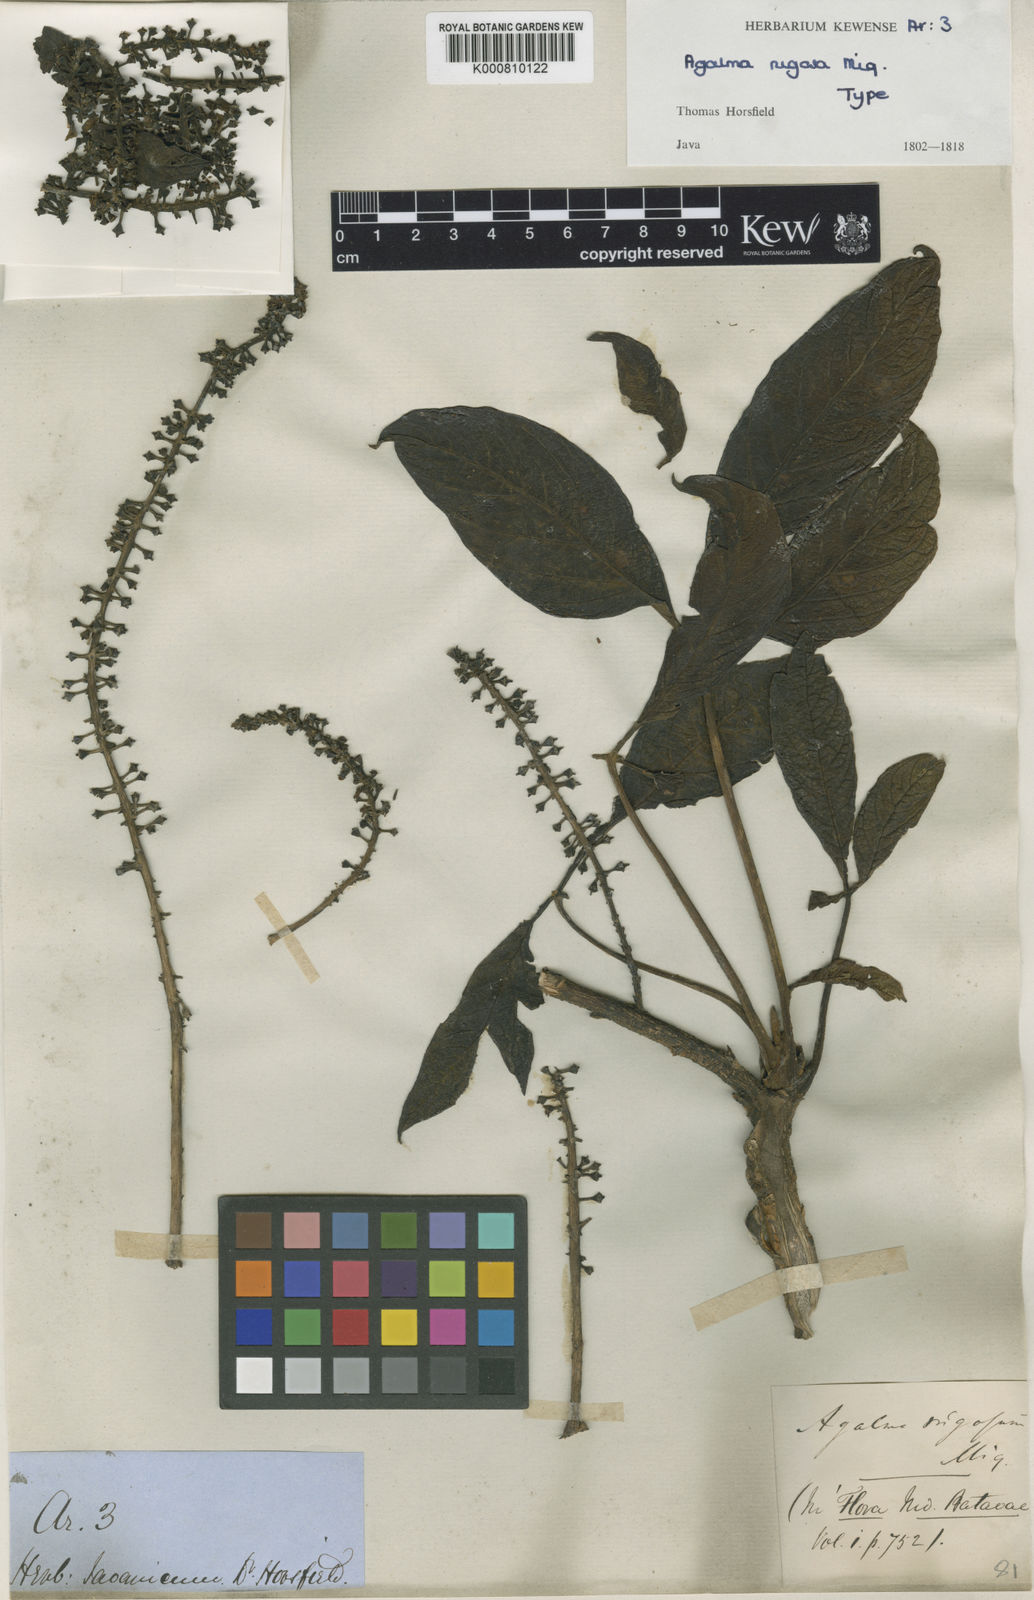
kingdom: Plantae
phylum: Tracheophyta
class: Magnoliopsida
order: Apiales
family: Araliaceae
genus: Heptapleurum
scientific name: Heptapleurum rugosum
